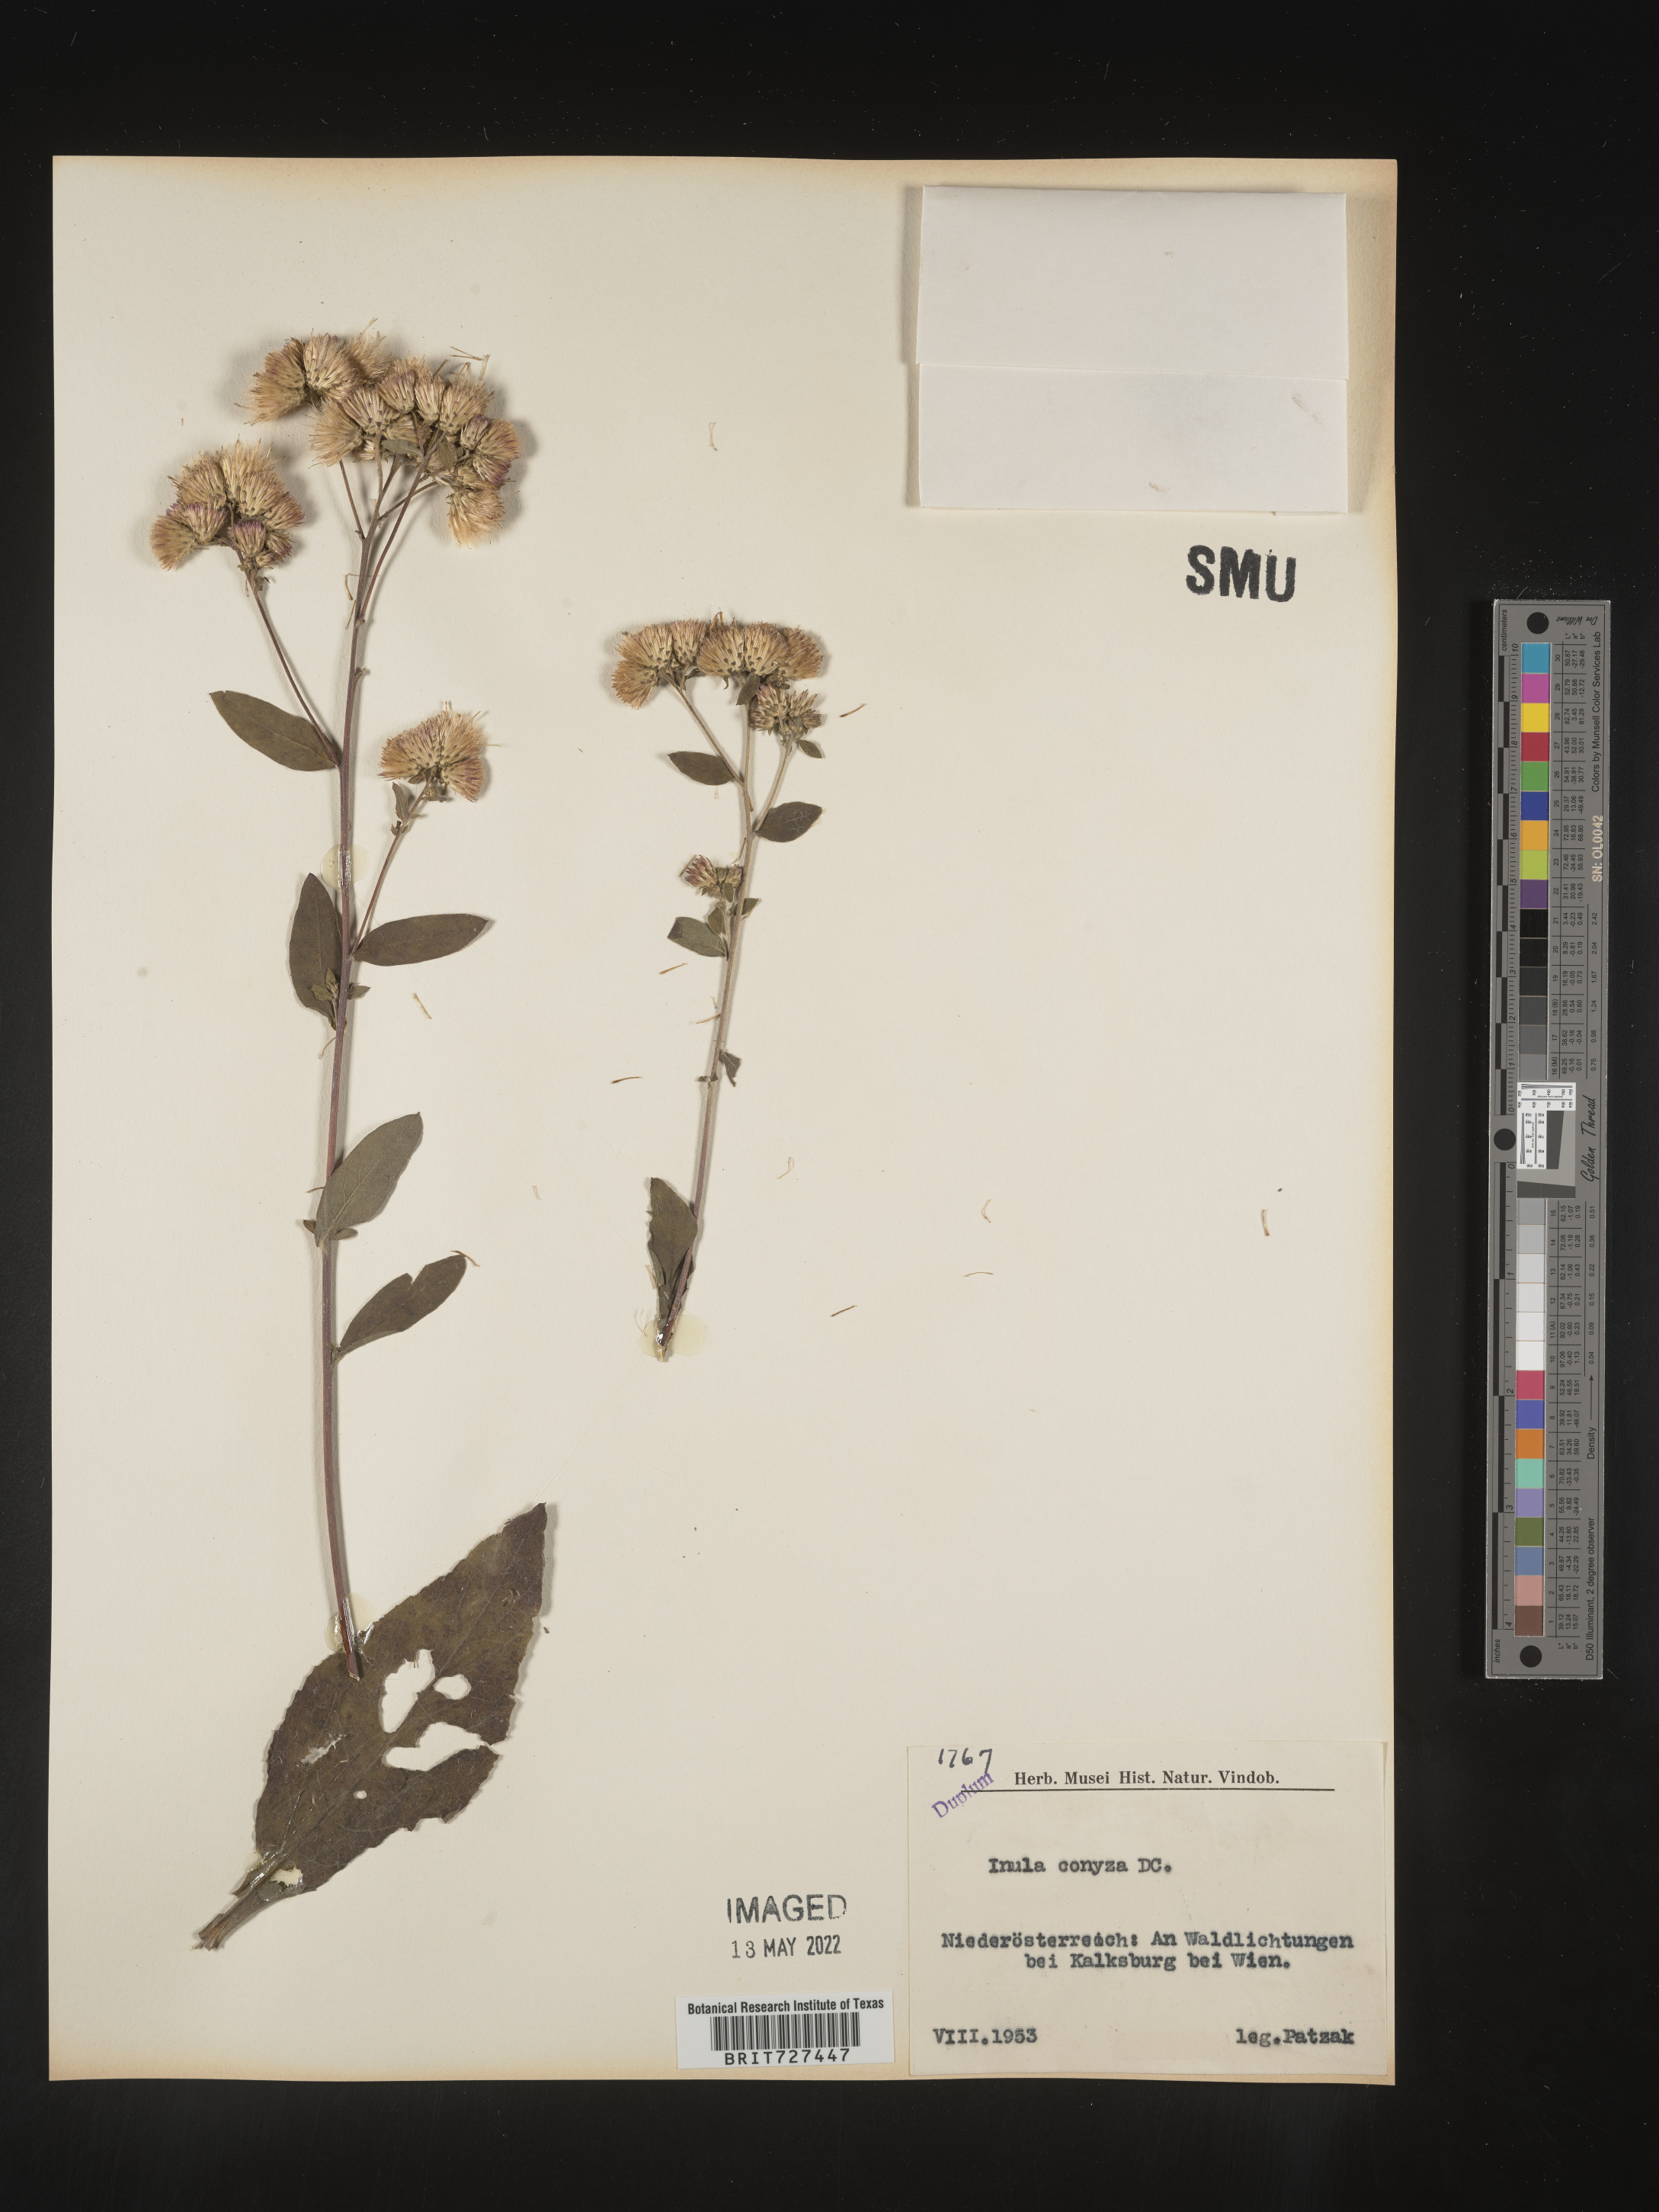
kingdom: Plantae
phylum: Tracheophyta
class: Magnoliopsida
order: Asterales
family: Asteraceae
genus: Inula
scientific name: Inula
